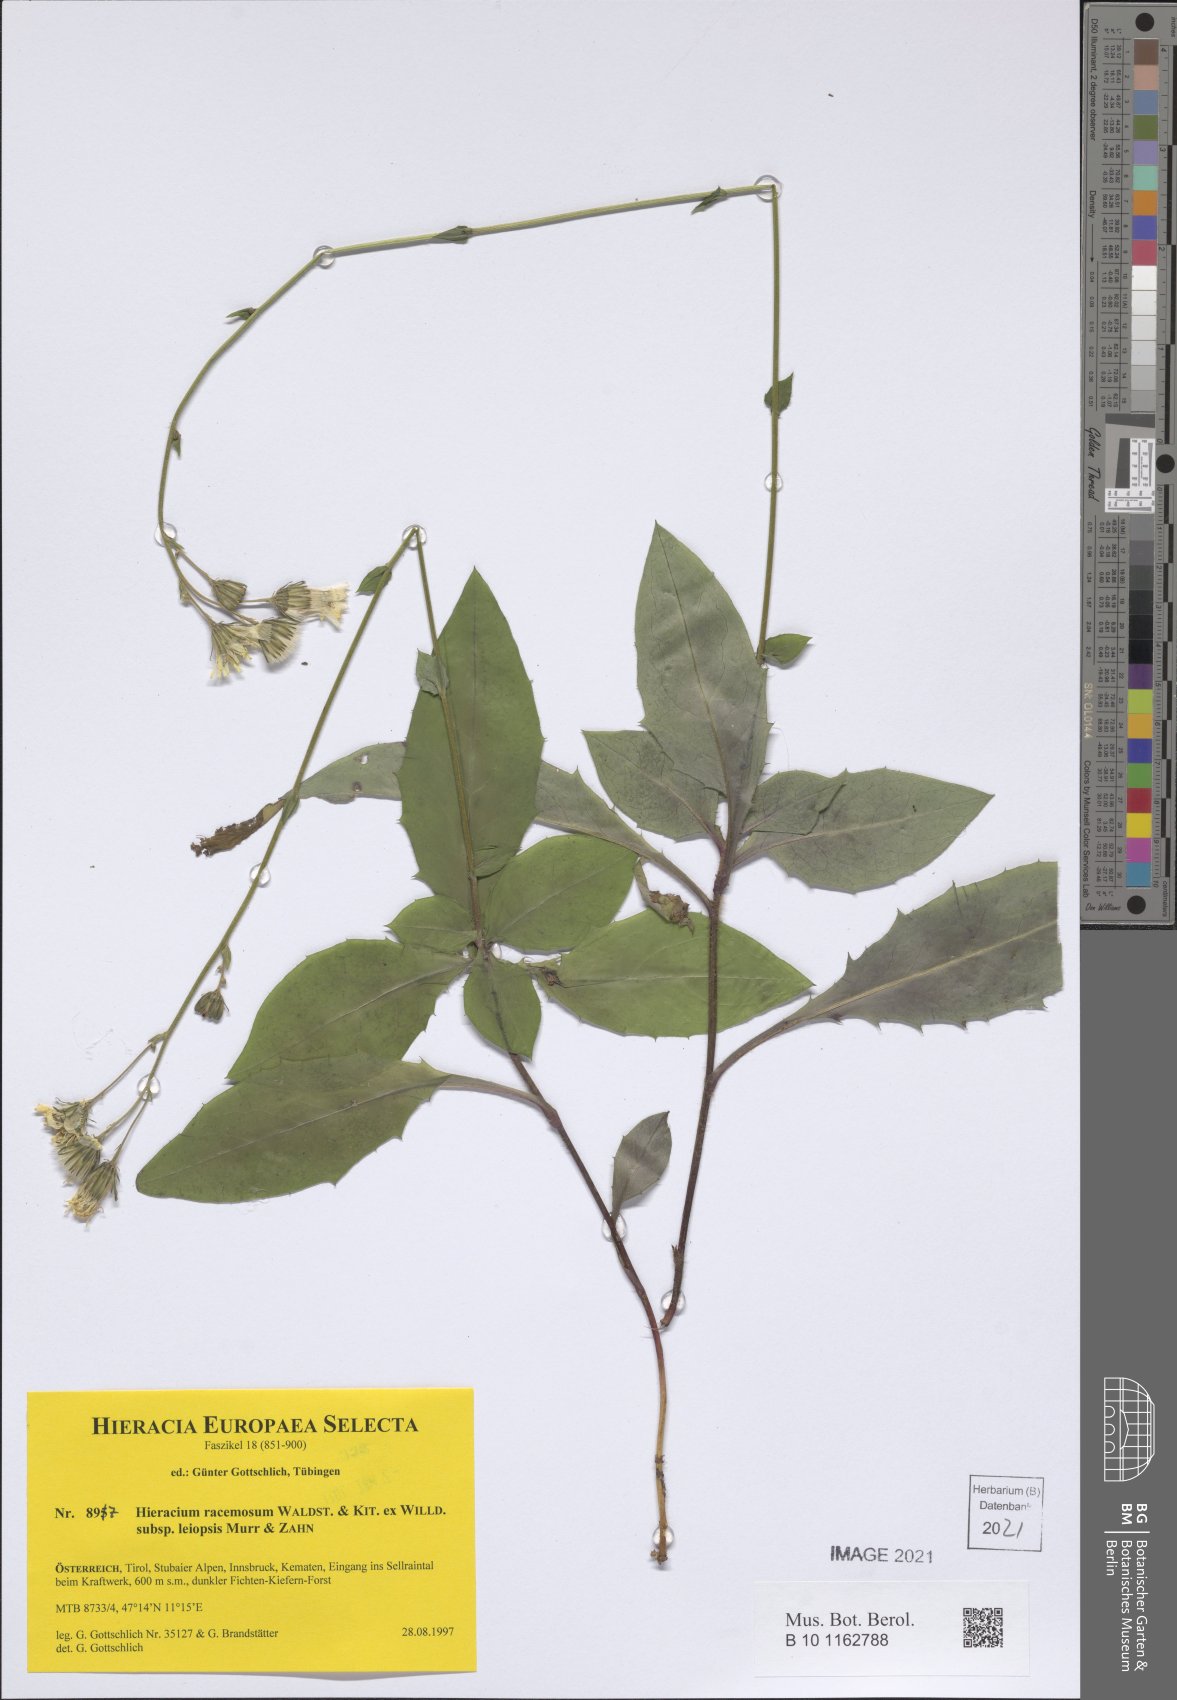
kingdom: Plantae
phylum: Tracheophyta
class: Magnoliopsida
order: Asterales
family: Asteraceae
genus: Hieracium
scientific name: Hieracium racemosum
